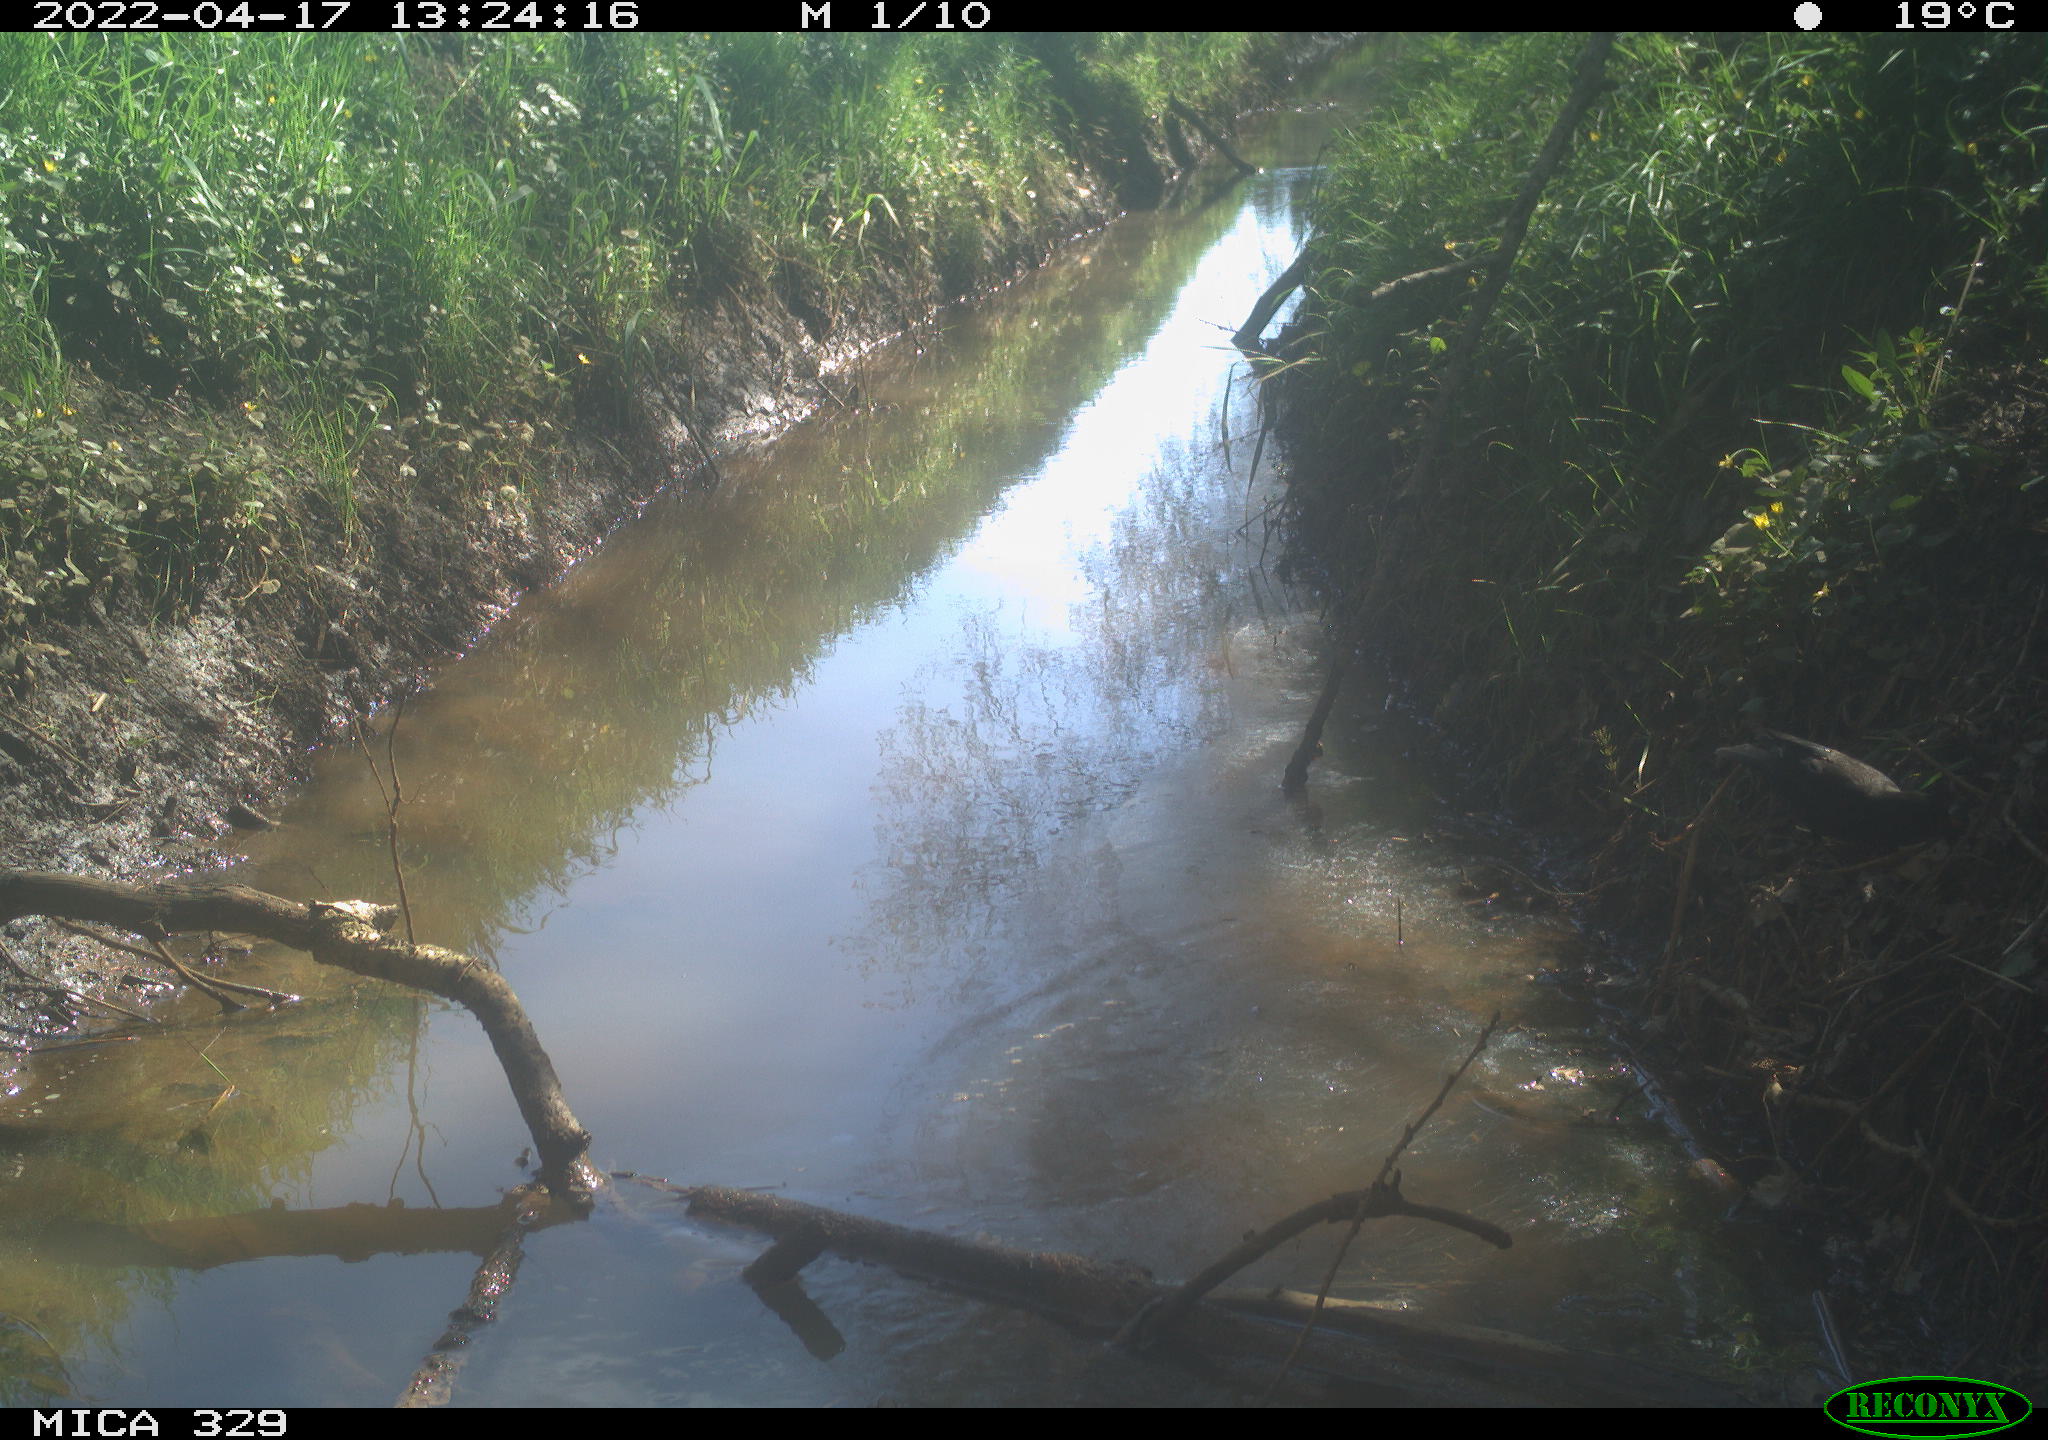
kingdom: Animalia
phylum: Chordata
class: Aves
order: Passeriformes
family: Turdidae
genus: Turdus
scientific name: Turdus merula
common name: Common blackbird
